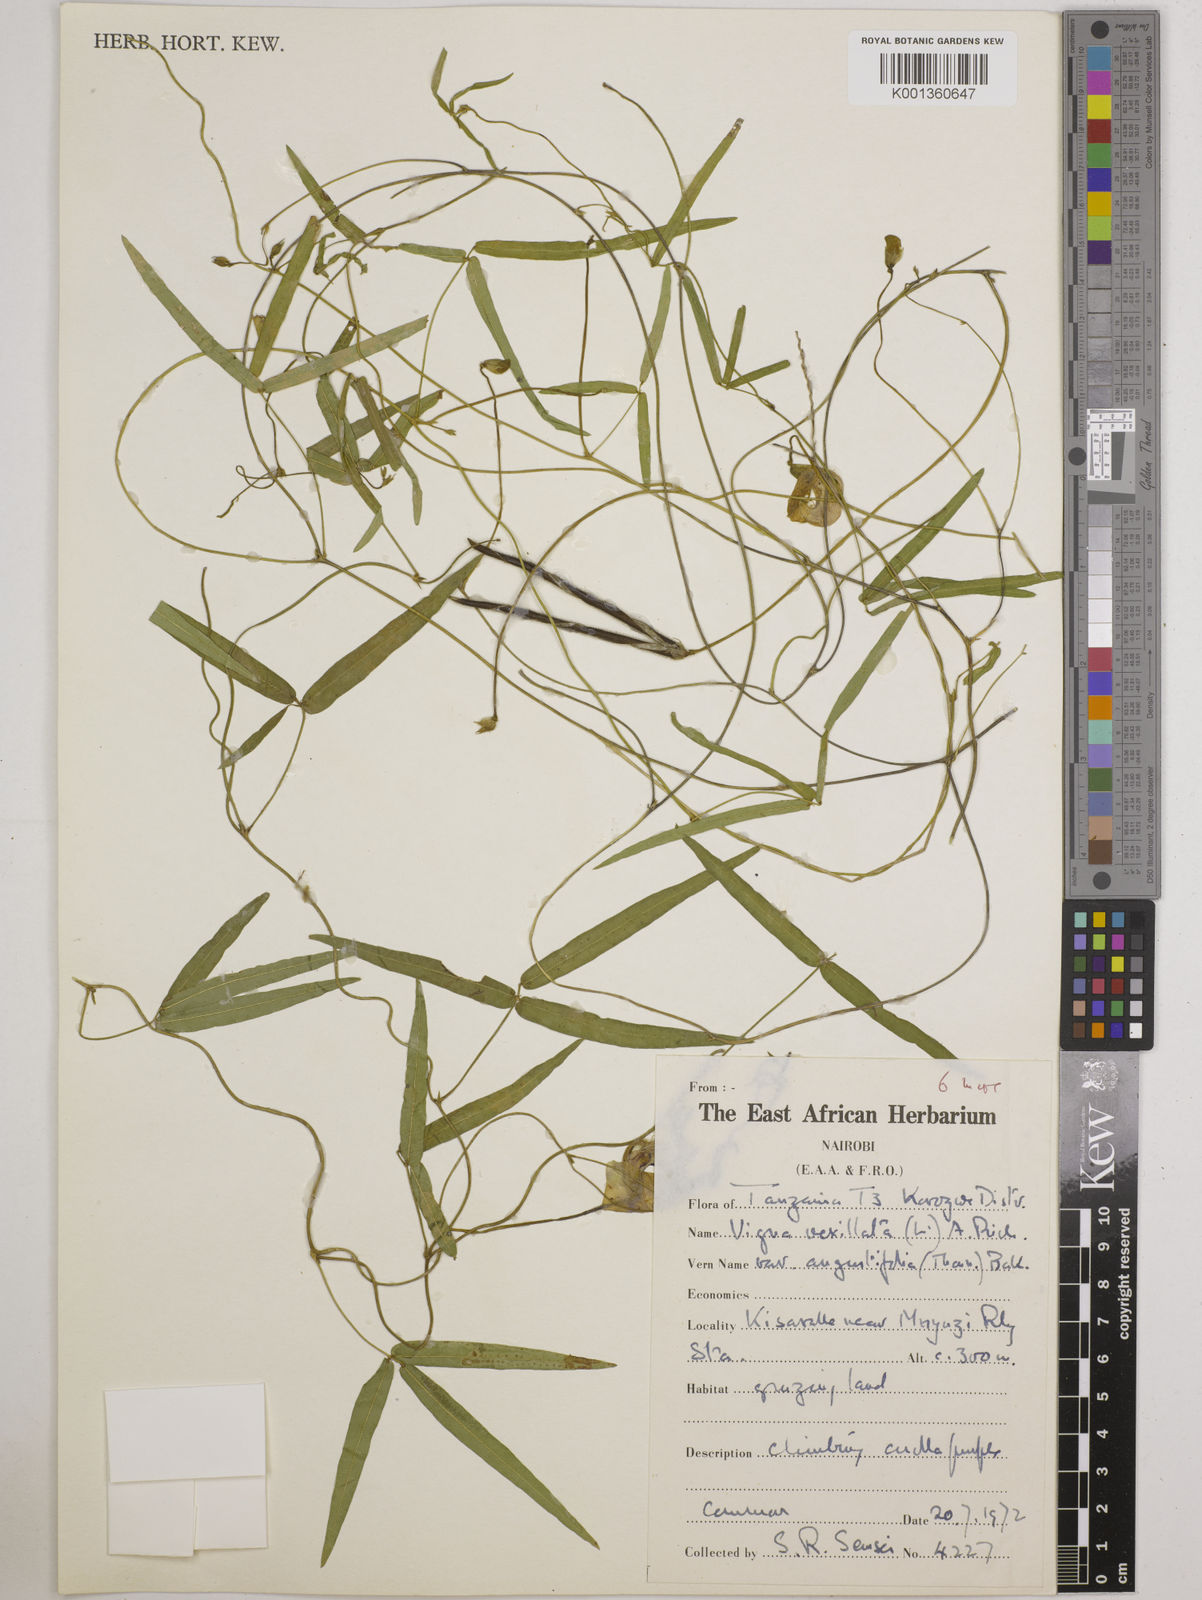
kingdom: Plantae
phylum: Tracheophyta
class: Magnoliopsida
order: Fabales
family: Fabaceae
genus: Vigna
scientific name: Vigna vexillata
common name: Zombi pea
